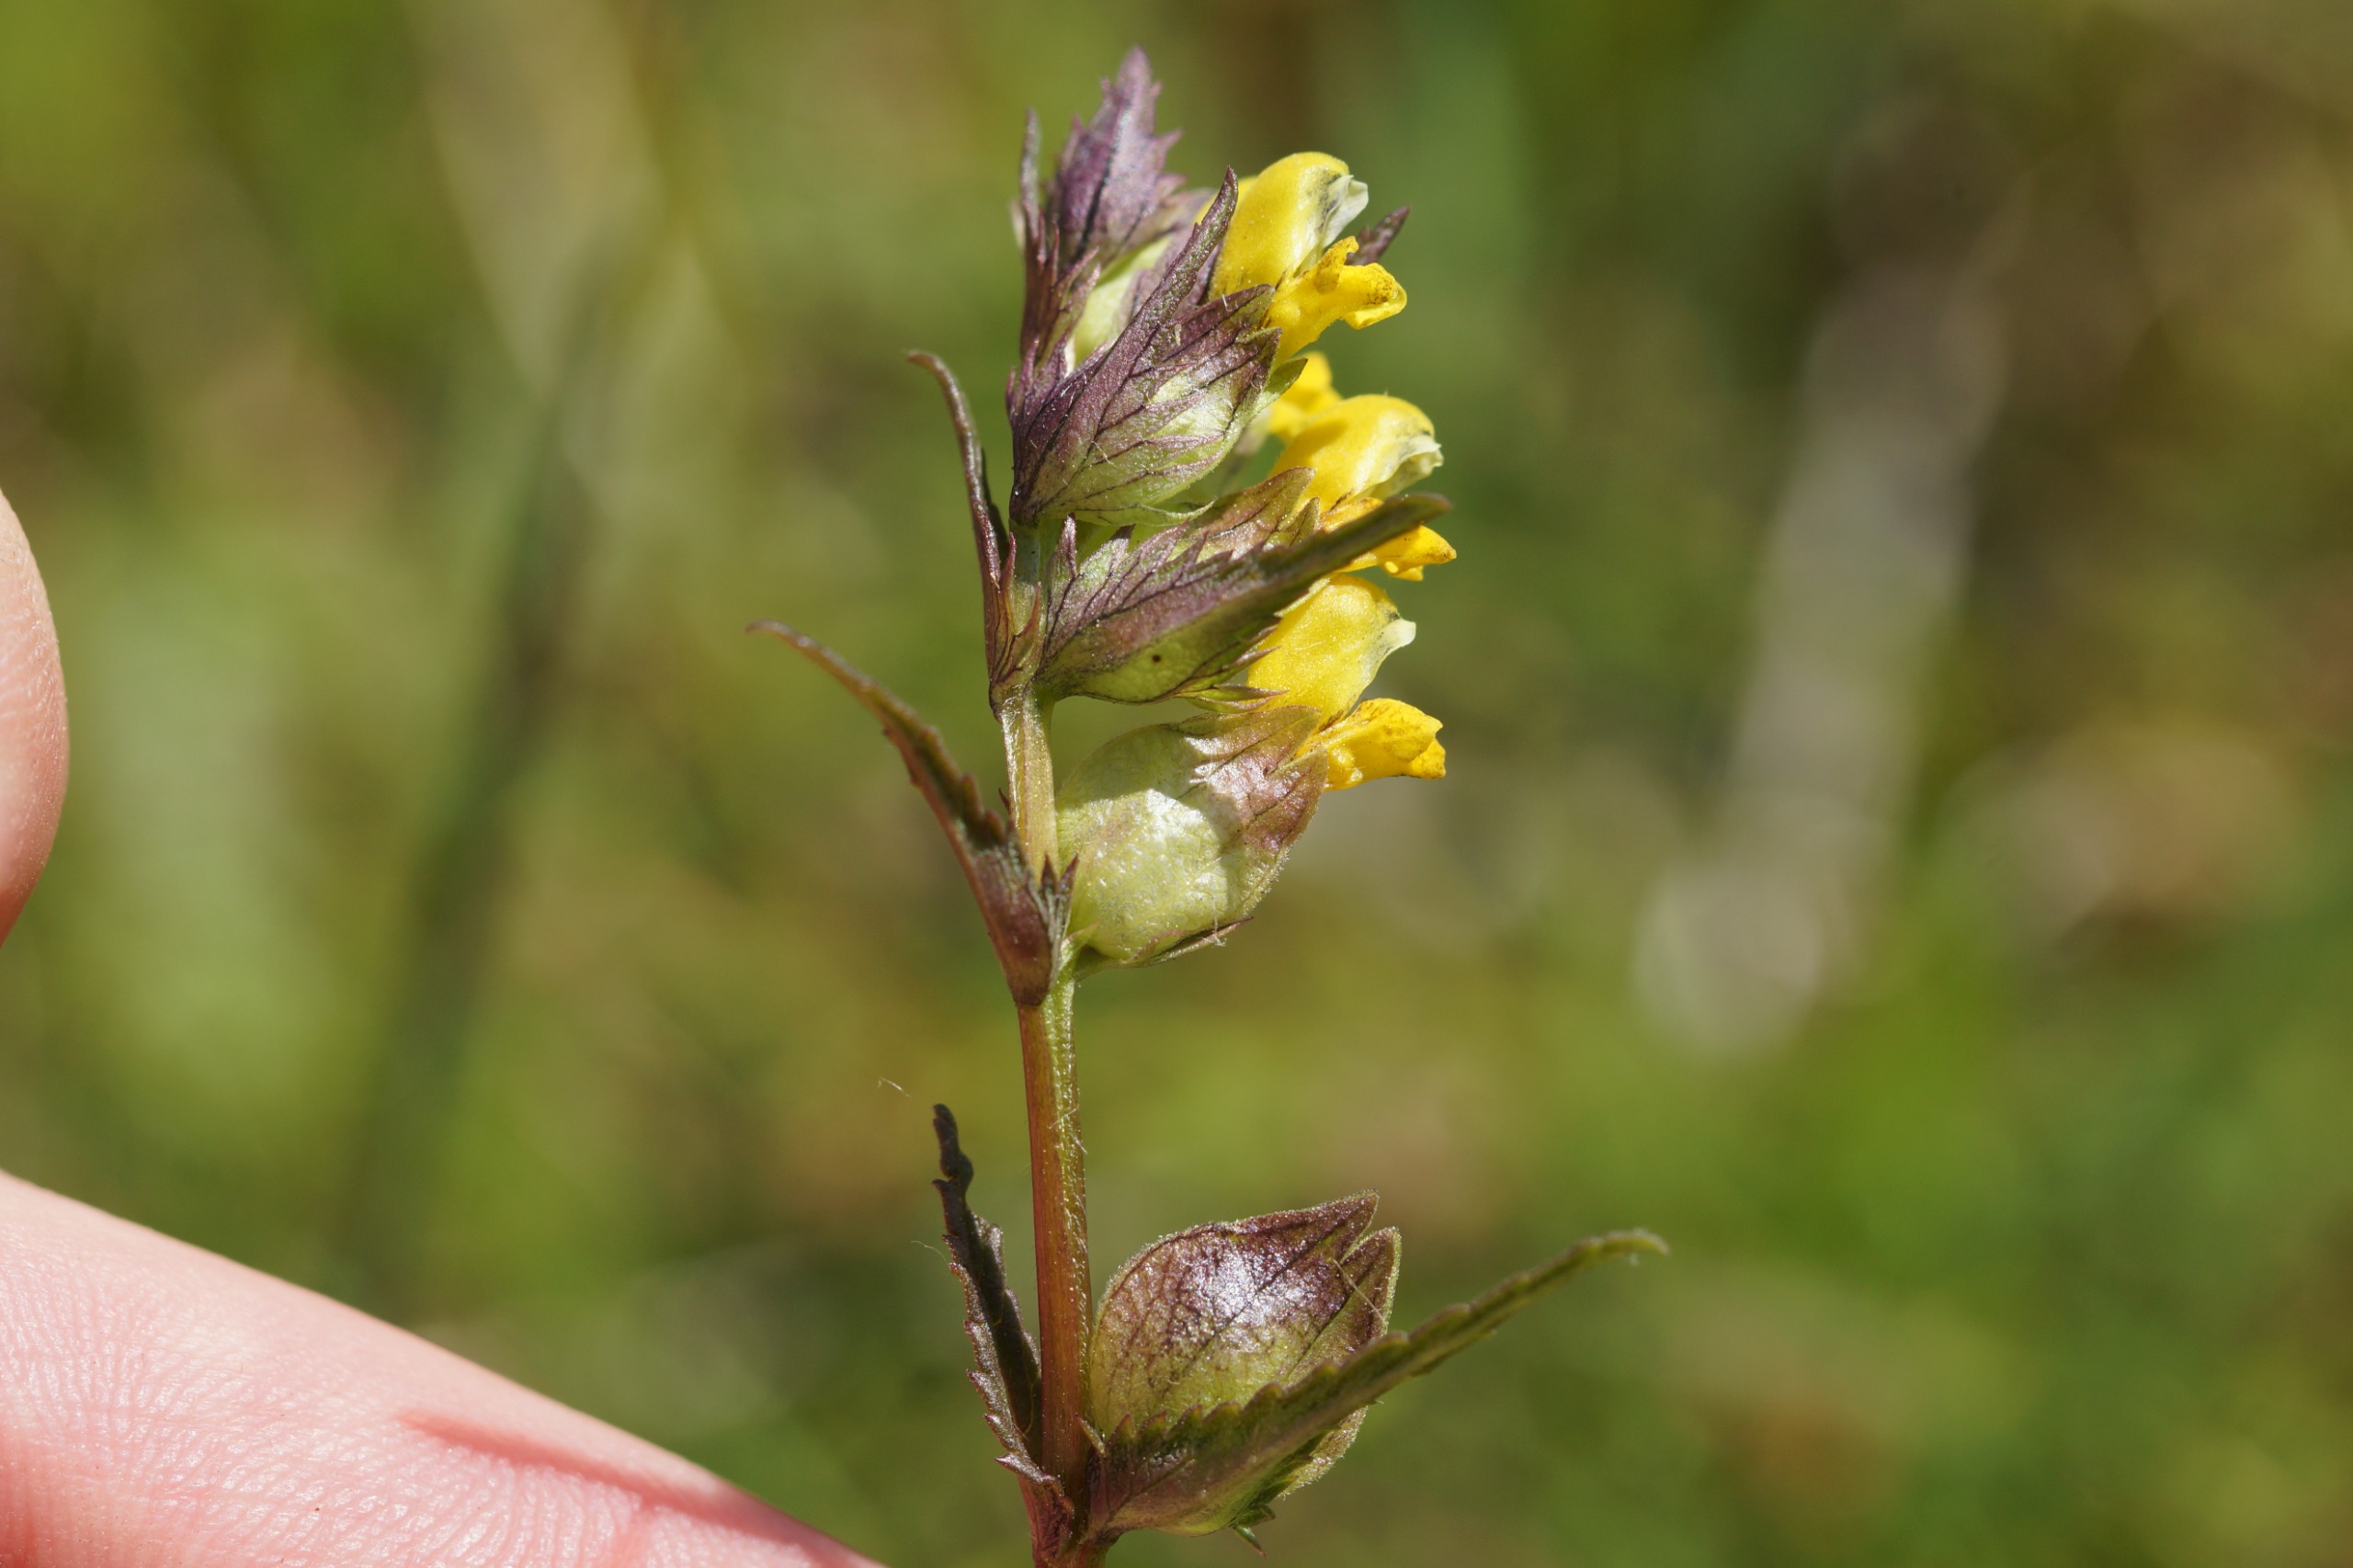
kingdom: Plantae
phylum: Tracheophyta
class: Magnoliopsida
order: Lamiales
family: Orobanchaceae
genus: Rhinanthus
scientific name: Rhinanthus minor
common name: Liden skjaller
